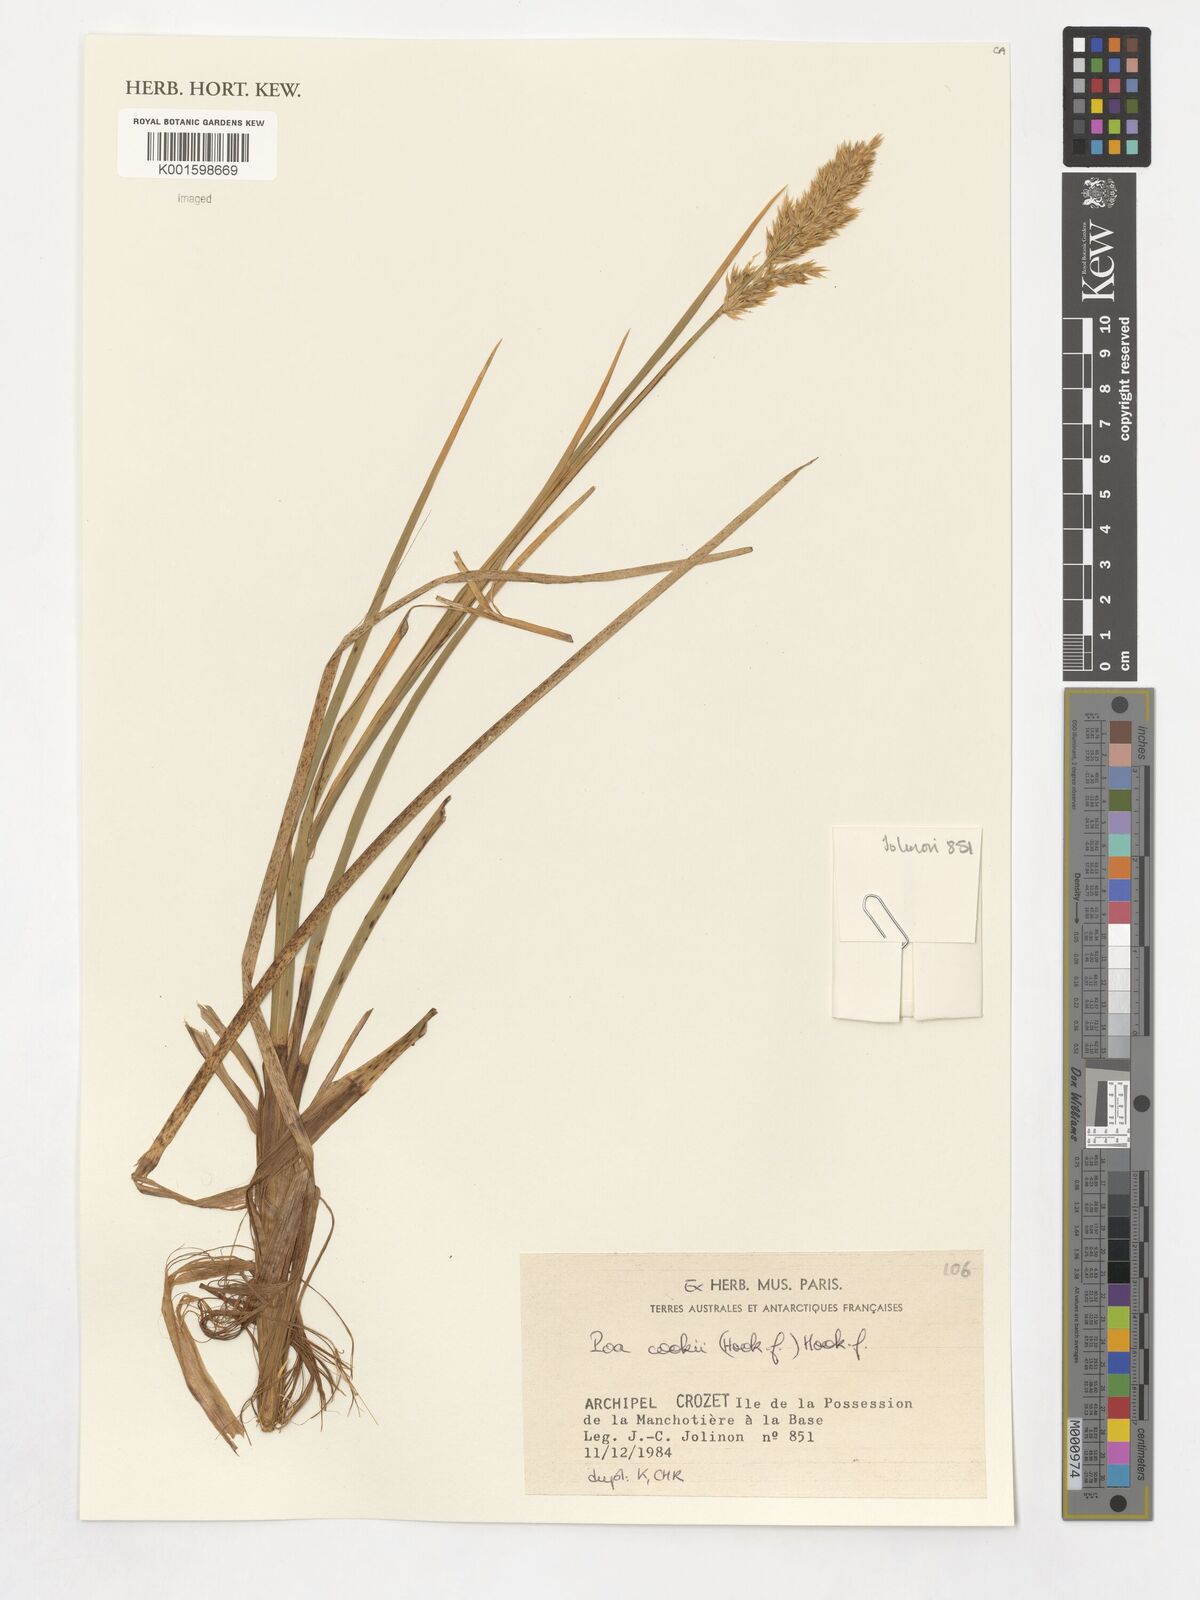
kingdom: Plantae
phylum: Tracheophyta
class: Liliopsida
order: Poales
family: Poaceae
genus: Poa
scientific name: Poa cookii
